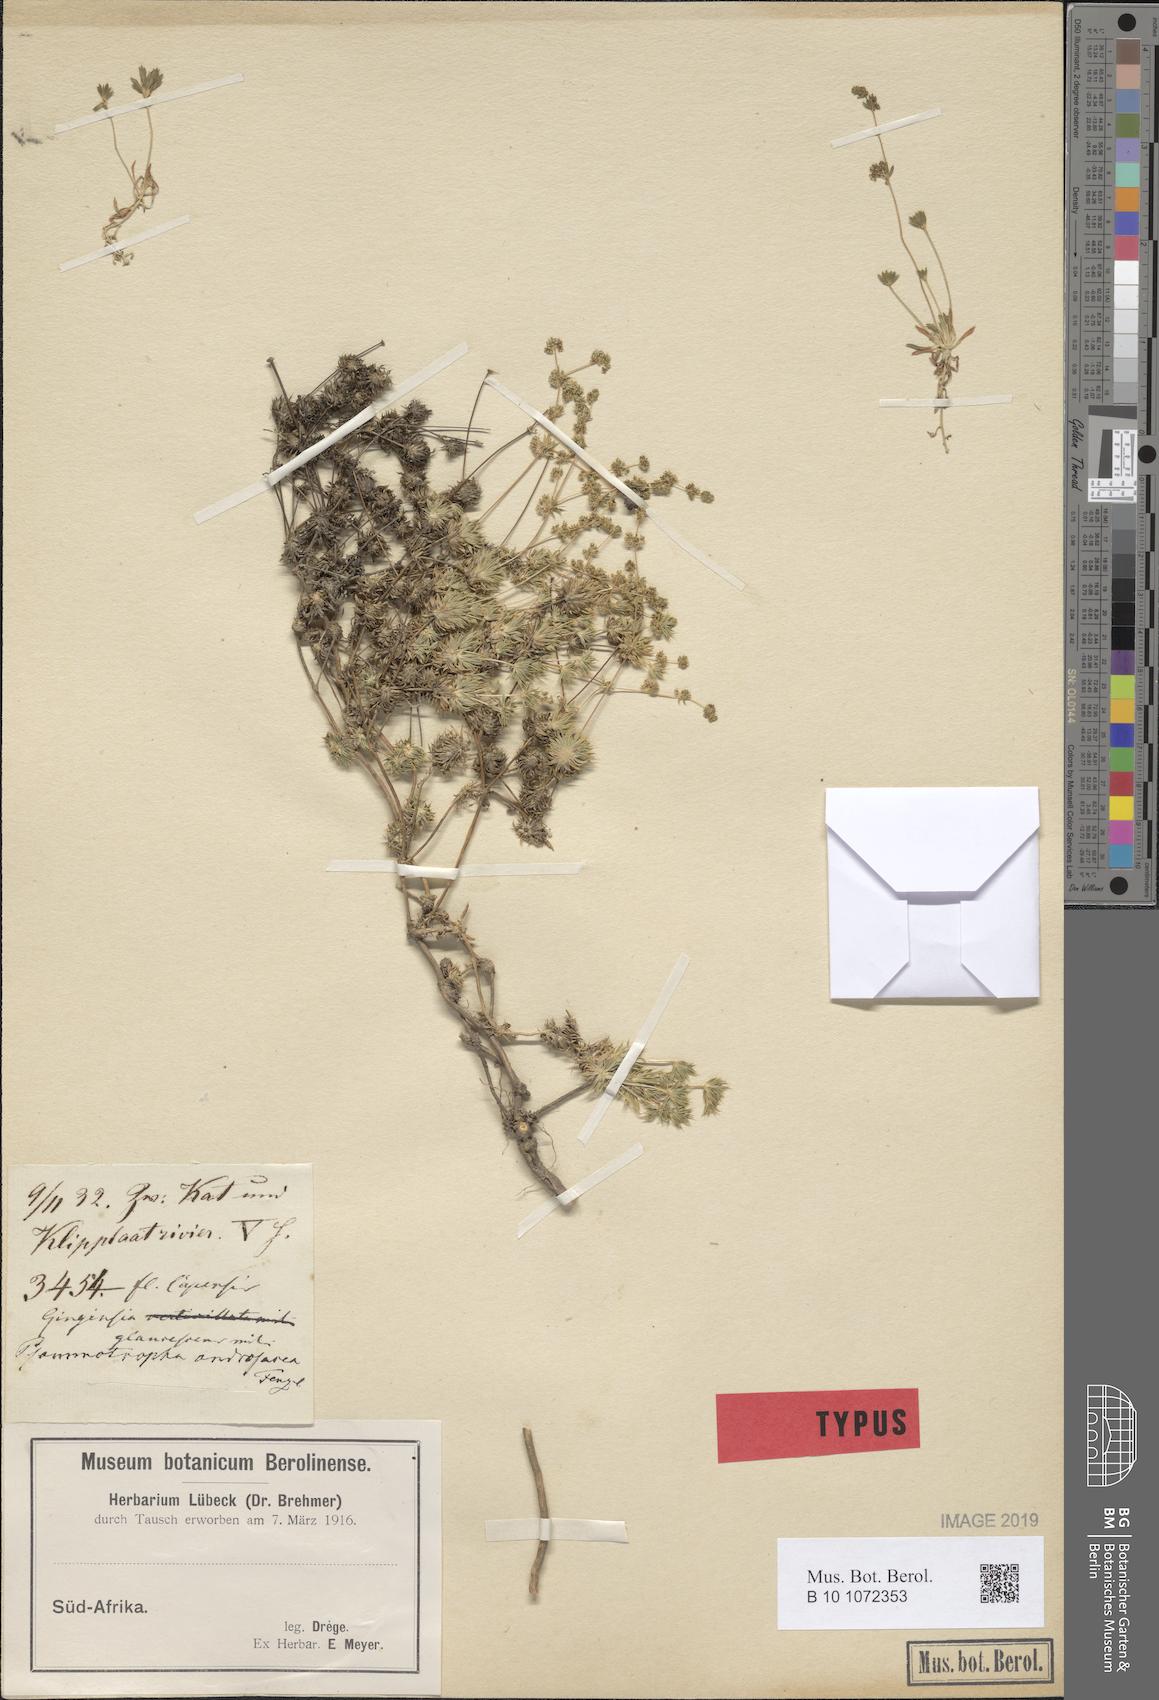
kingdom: Plantae
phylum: Tracheophyta
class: Magnoliopsida
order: Caryophyllales
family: Molluginaceae
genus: Psammotropha
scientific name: Psammotropha mucronata
